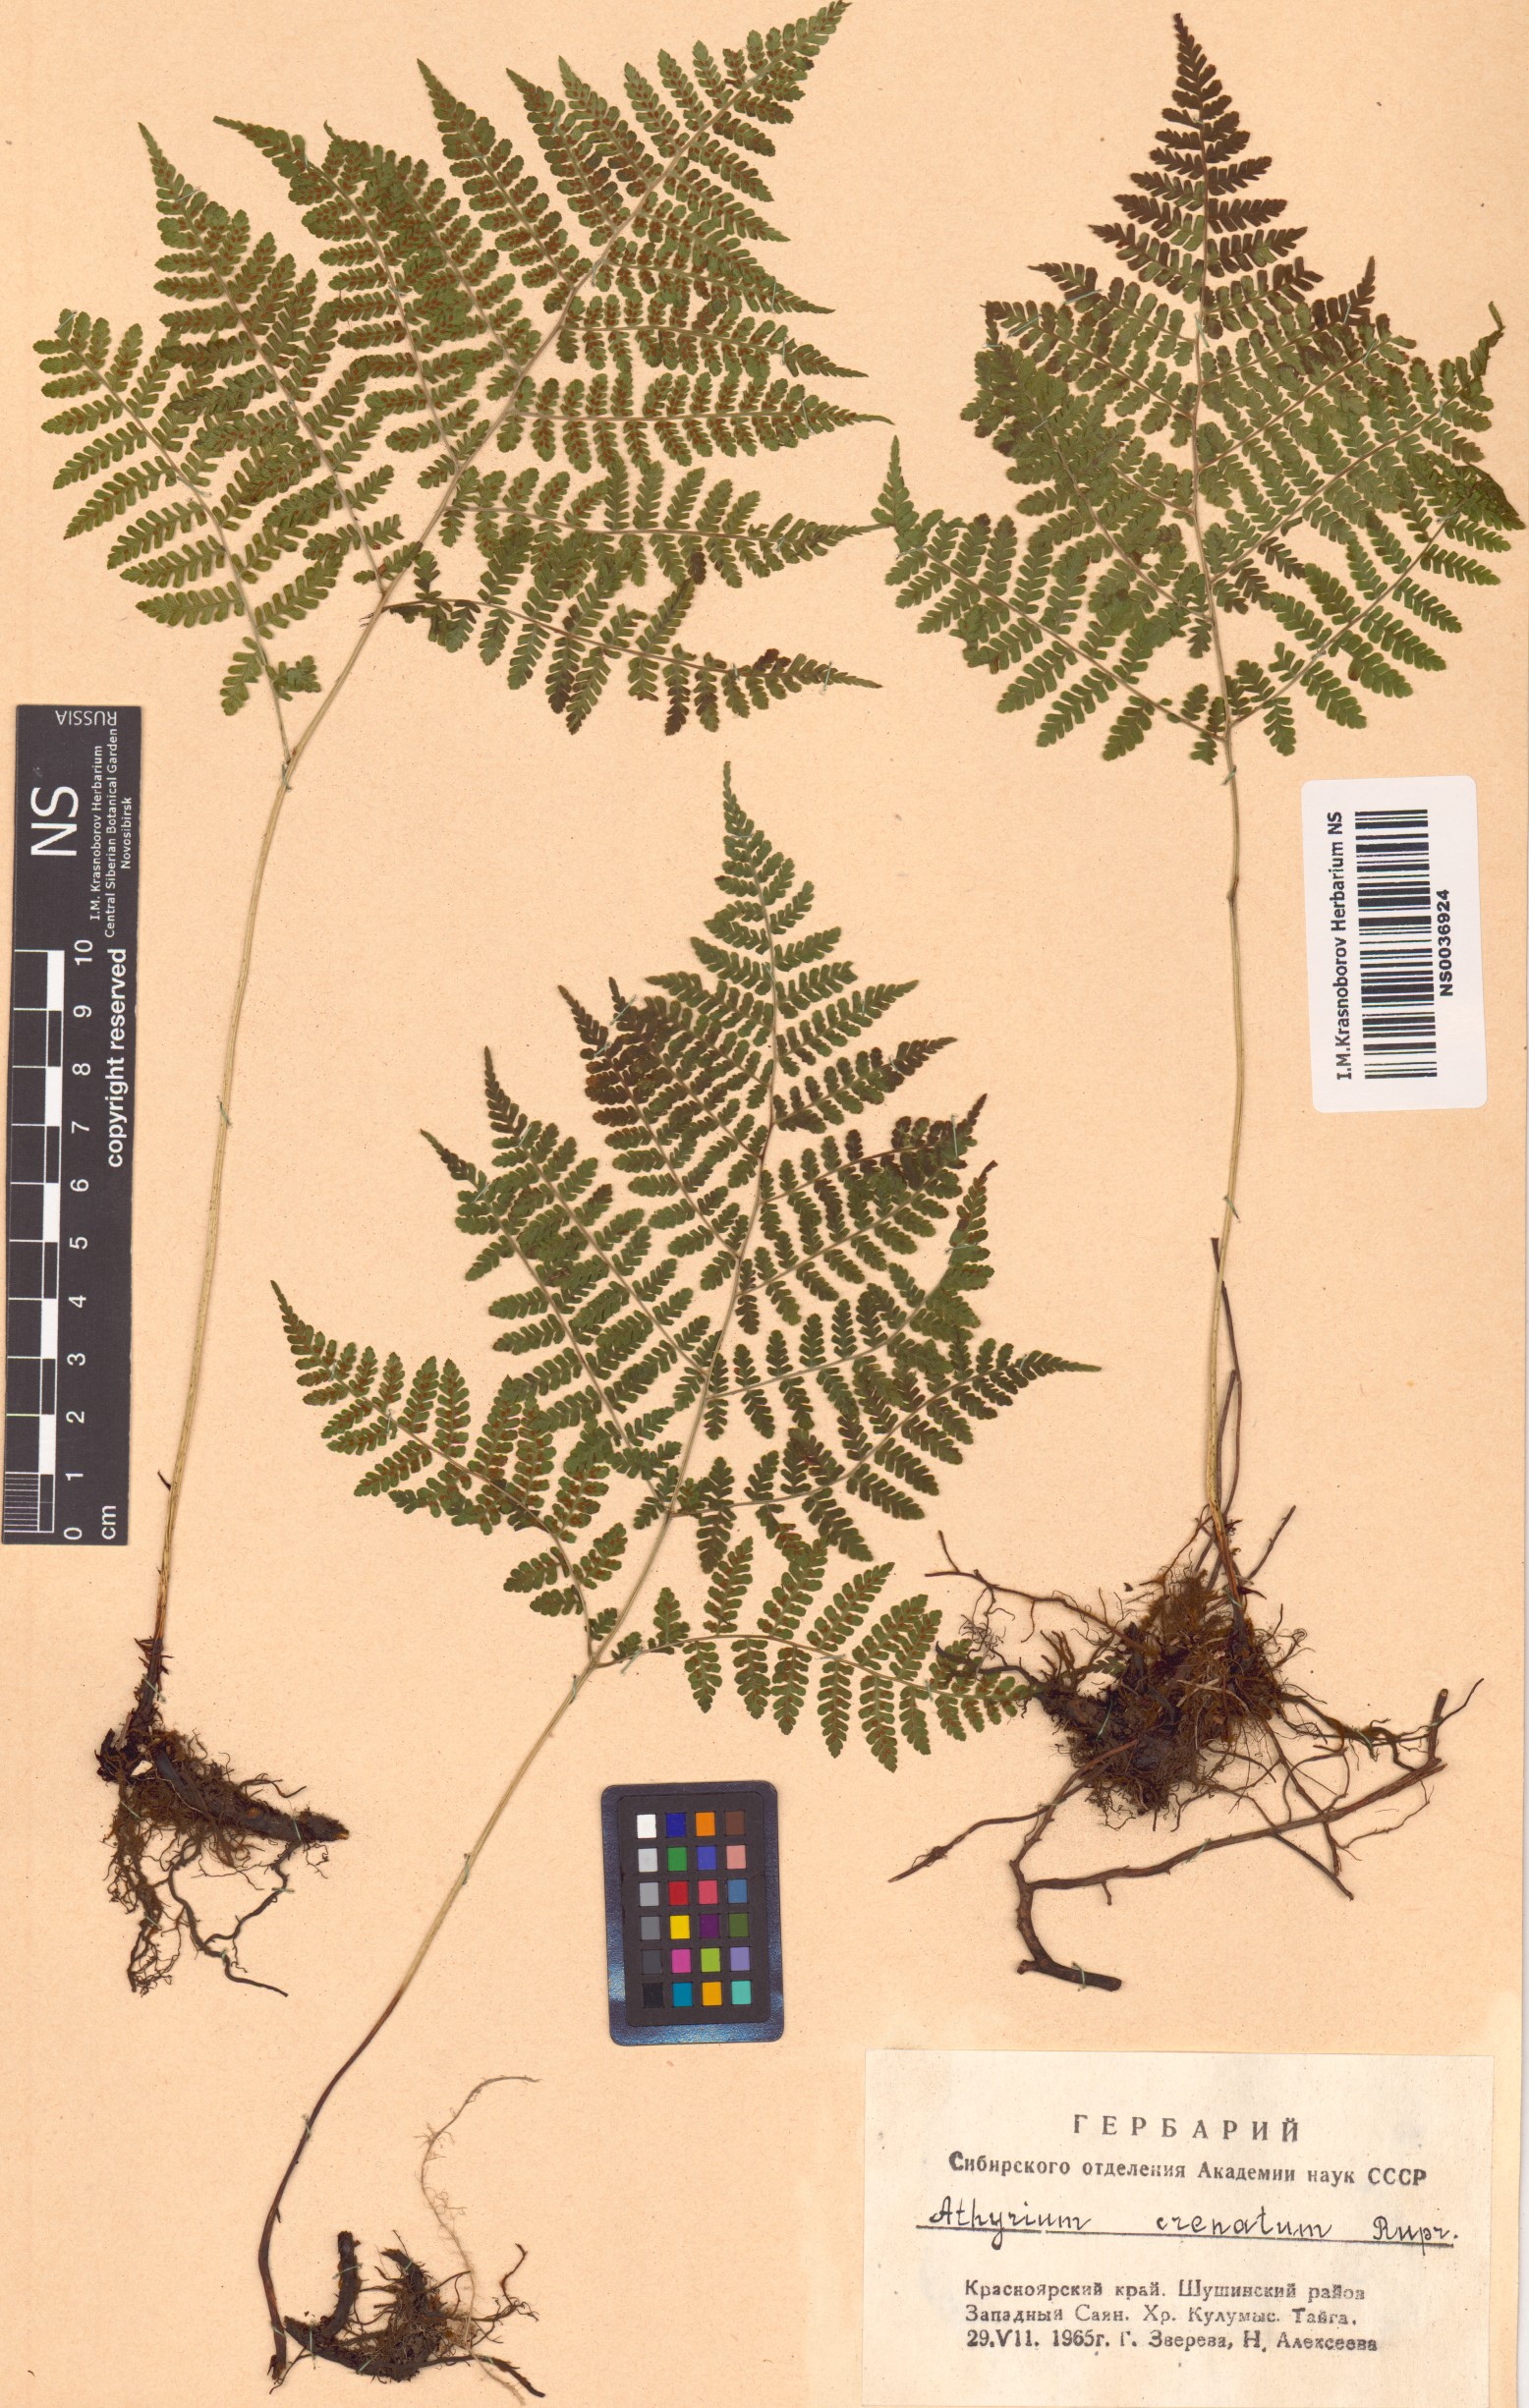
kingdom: Plantae
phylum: Tracheophyta
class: Polypodiopsida
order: Polypodiales
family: Athyriaceae
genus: Diplazium
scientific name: Diplazium sibiricum
